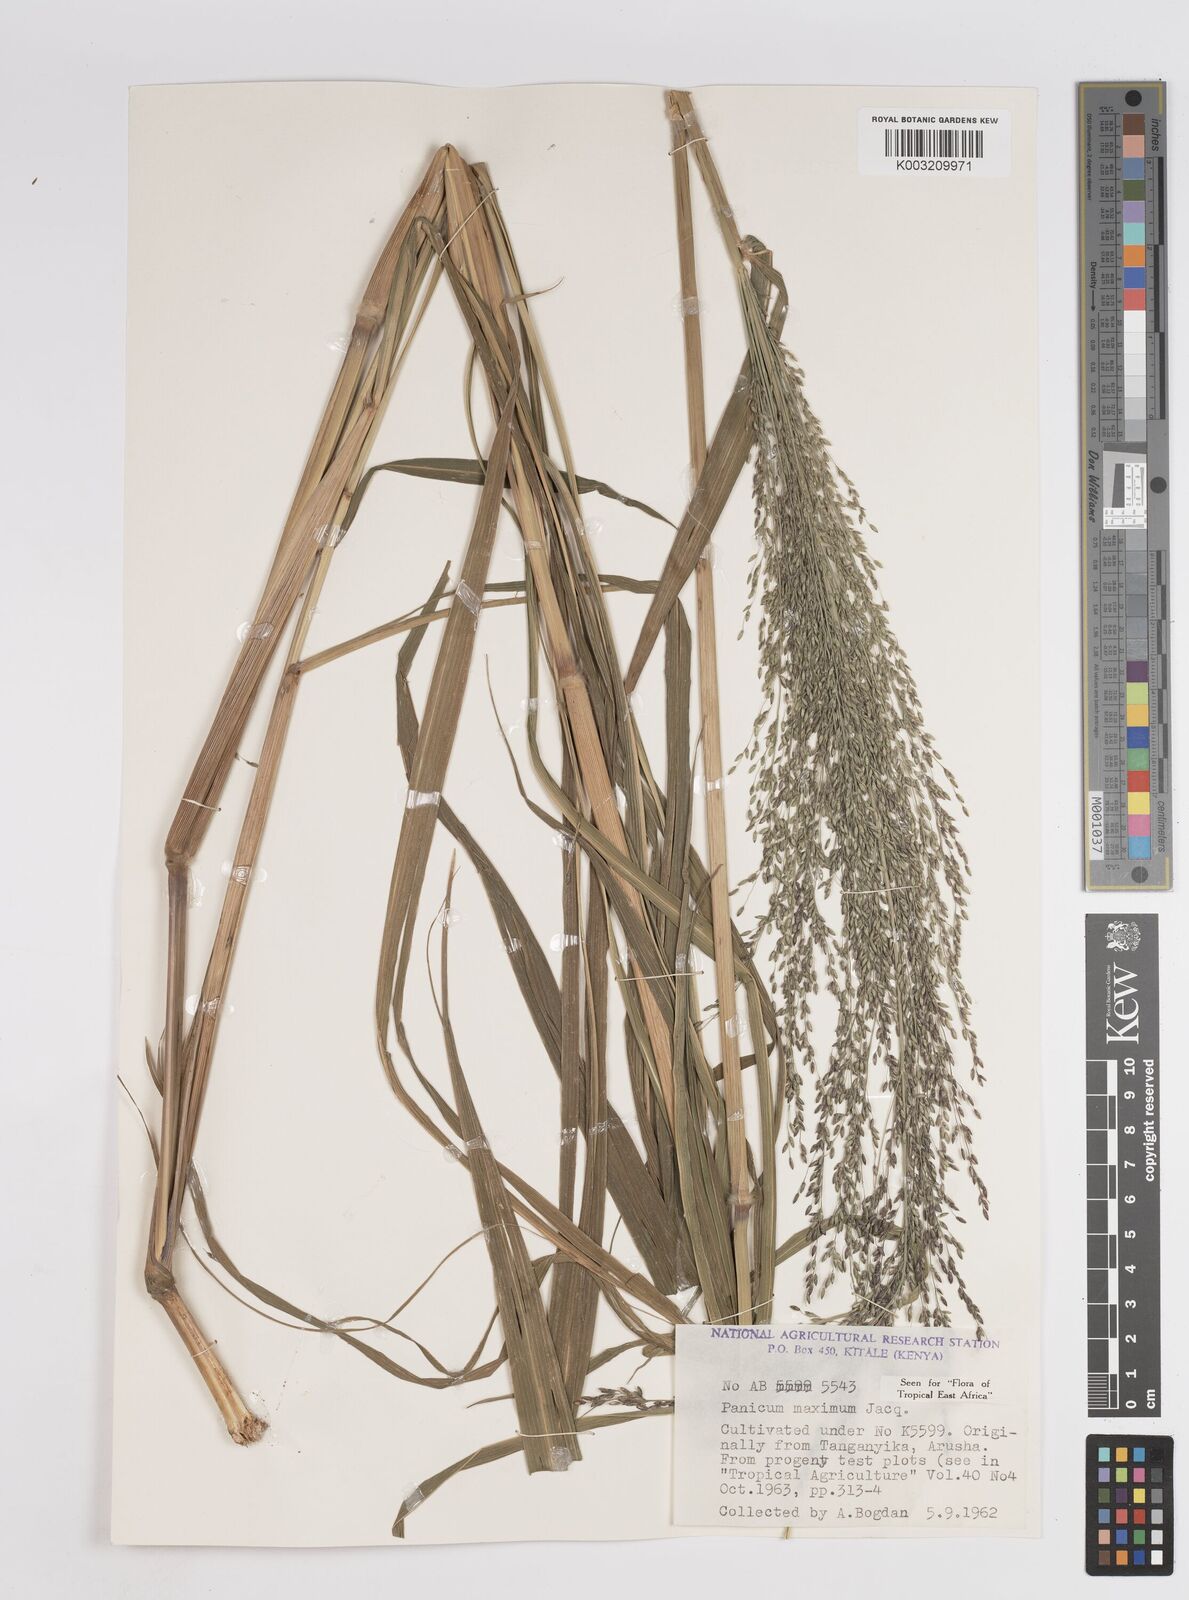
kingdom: Plantae
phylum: Tracheophyta
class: Liliopsida
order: Poales
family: Poaceae
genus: Megathyrsus
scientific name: Megathyrsus maximus
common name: Guineagrass
